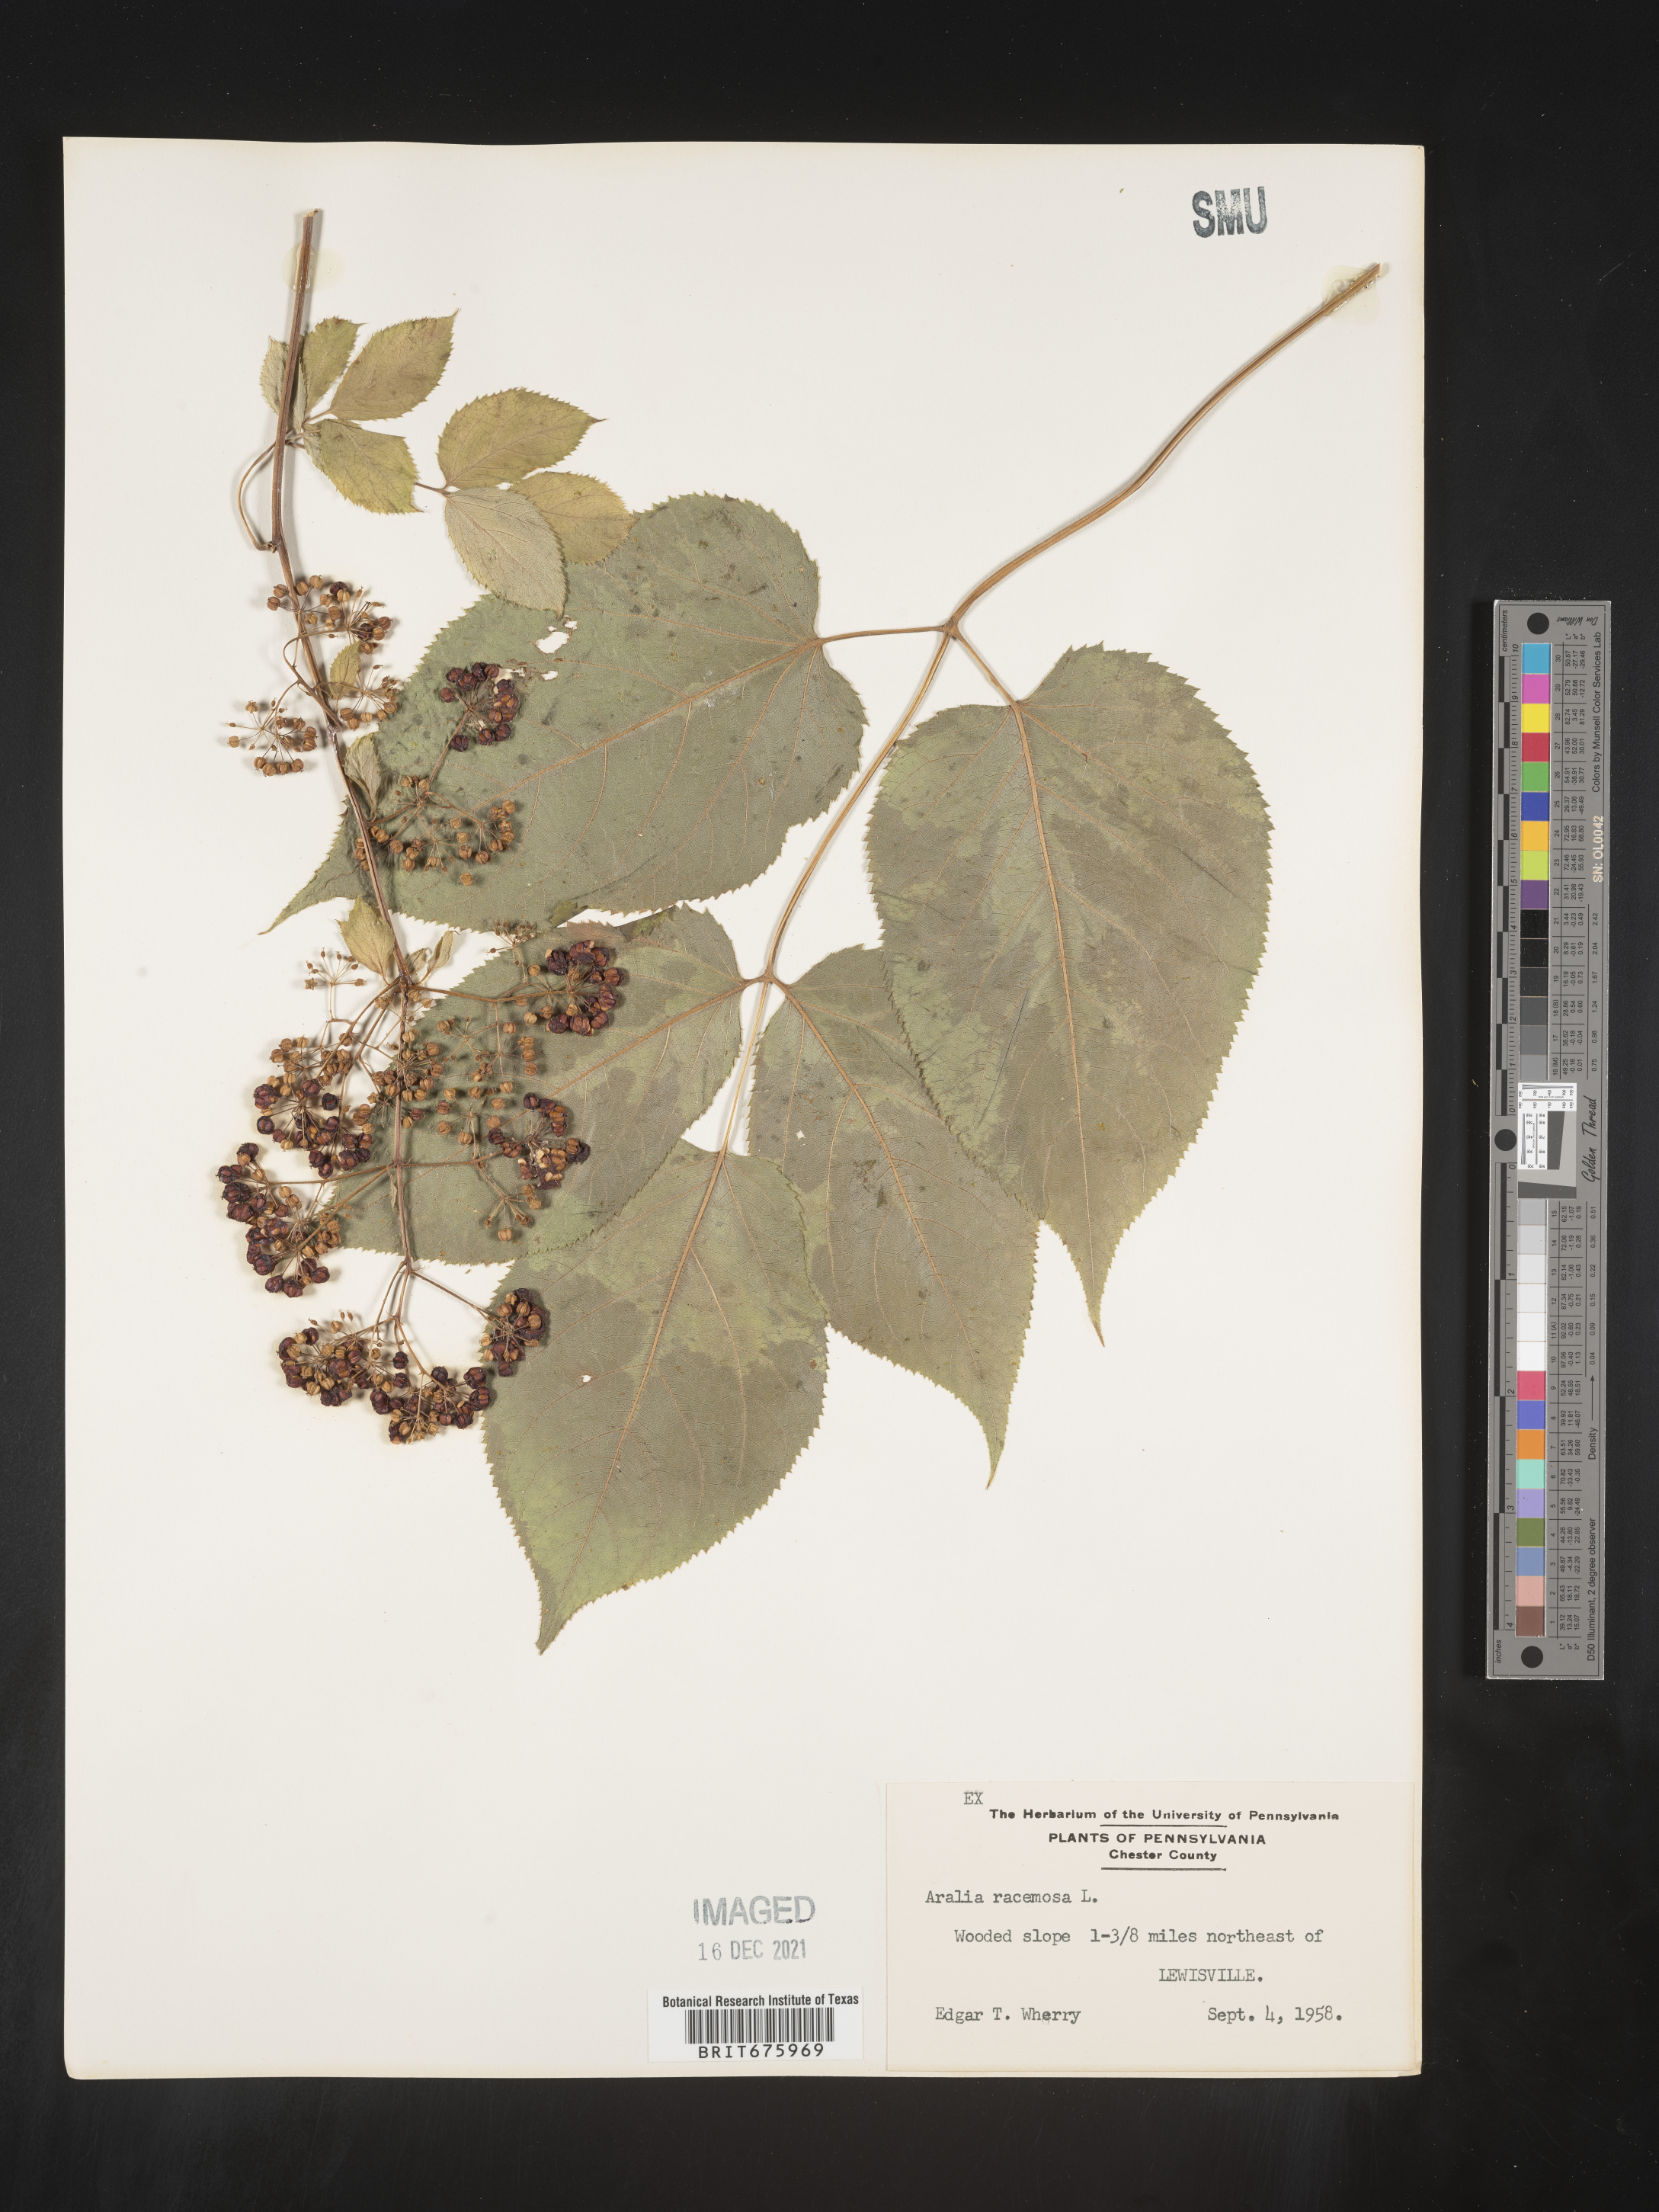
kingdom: Plantae
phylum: Tracheophyta
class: Magnoliopsida
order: Apiales
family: Araliaceae
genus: Aralia
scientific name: Aralia racemosa
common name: American-spikenard
